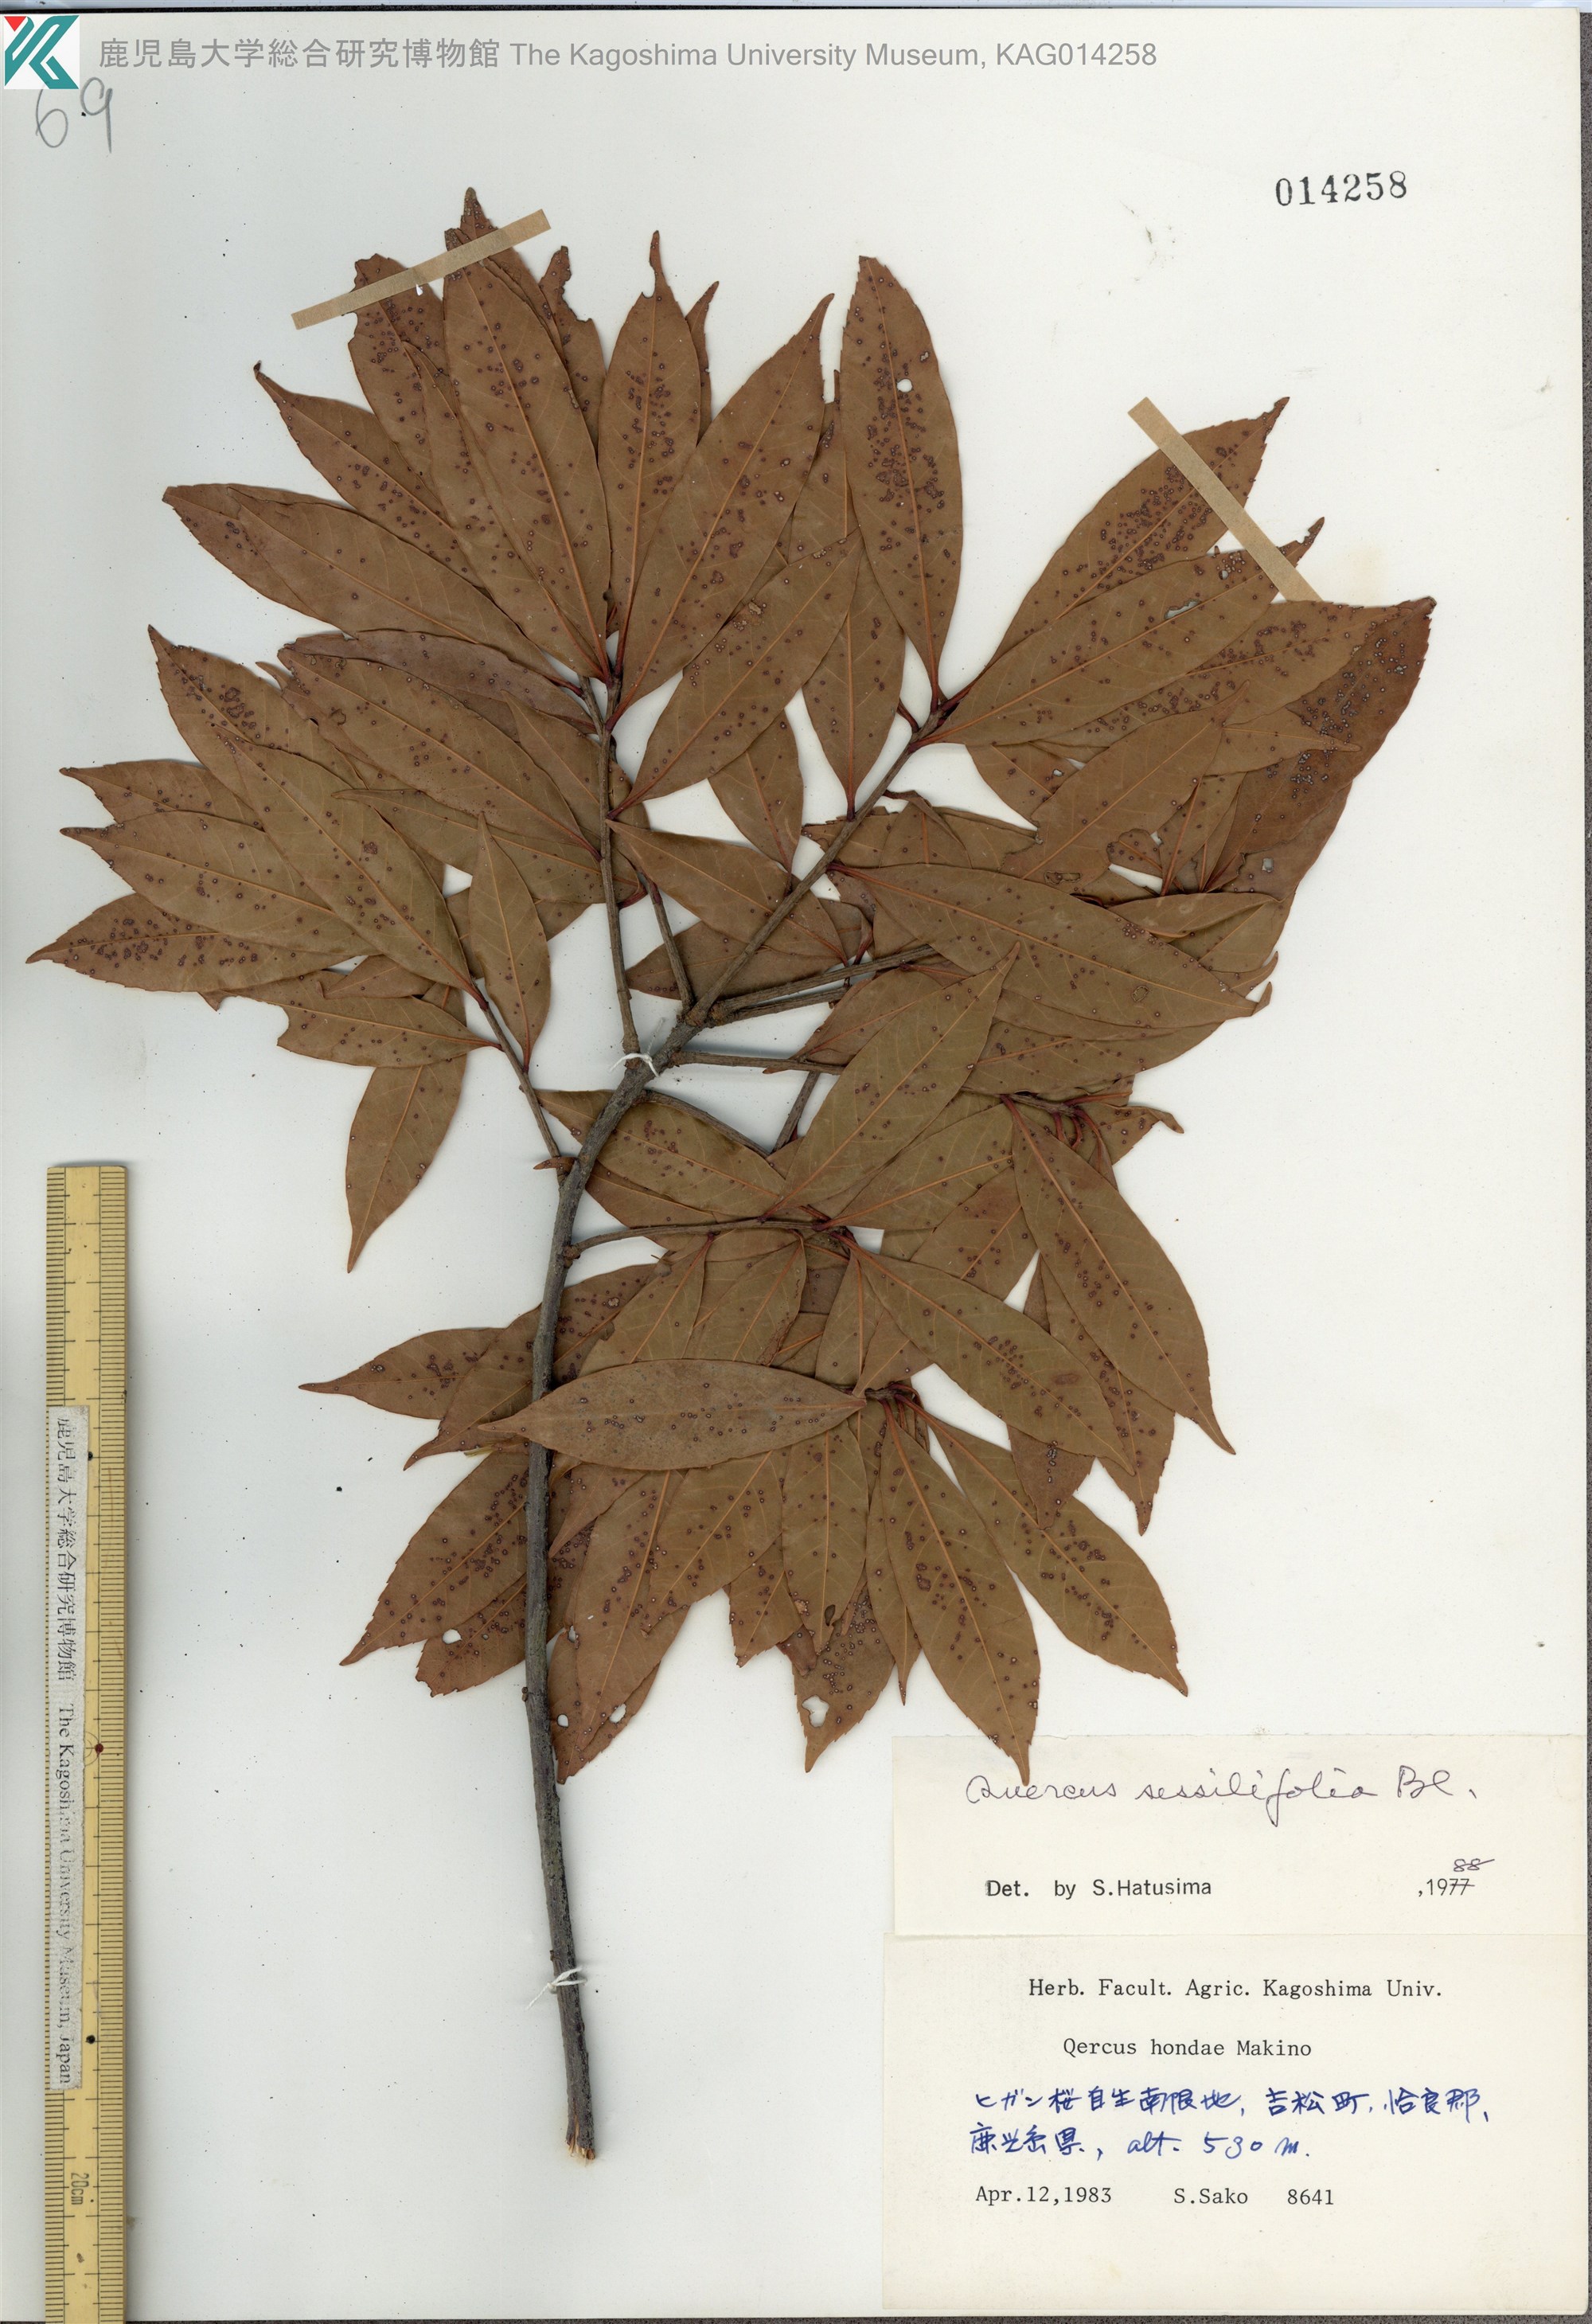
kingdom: Plantae
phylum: Tracheophyta
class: Magnoliopsida
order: Fagales
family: Fagaceae
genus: Quercus
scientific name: Quercus sessilifolia
